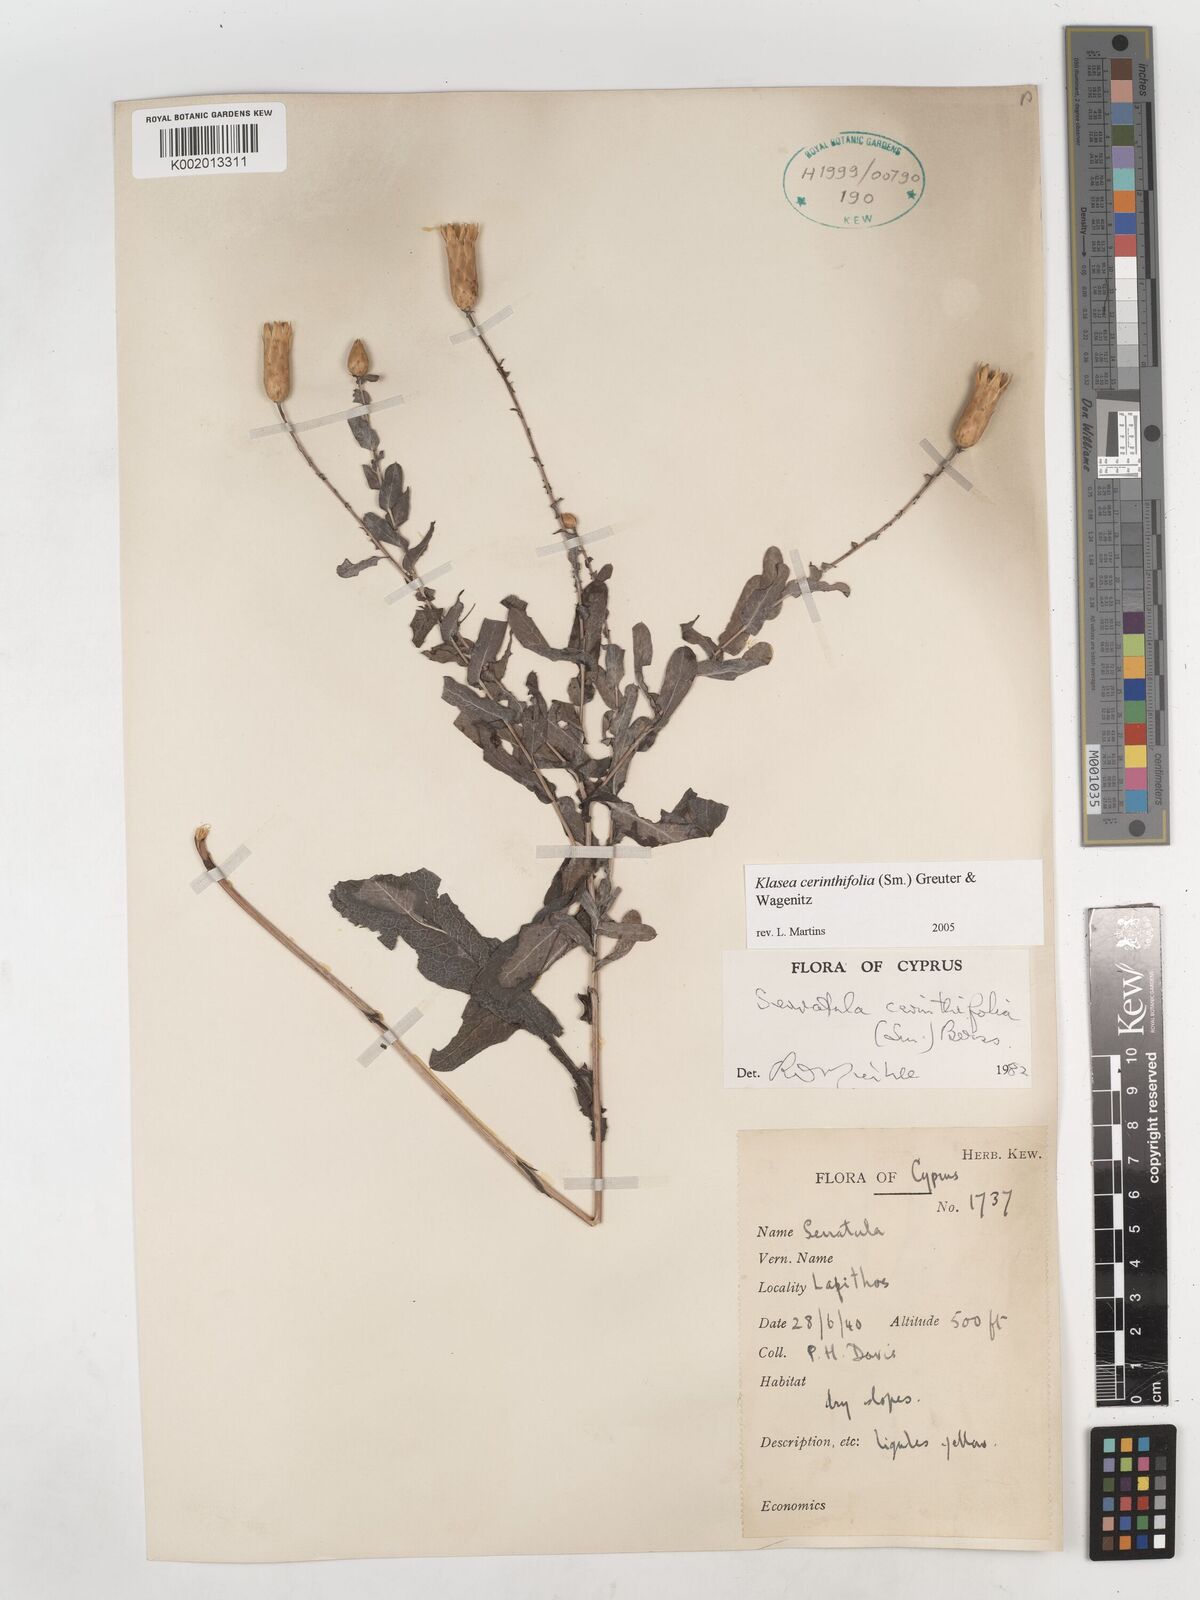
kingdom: Plantae
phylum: Tracheophyta
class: Magnoliopsida
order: Asterales
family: Asteraceae
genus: Klasea
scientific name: Klasea cerinthifolia
